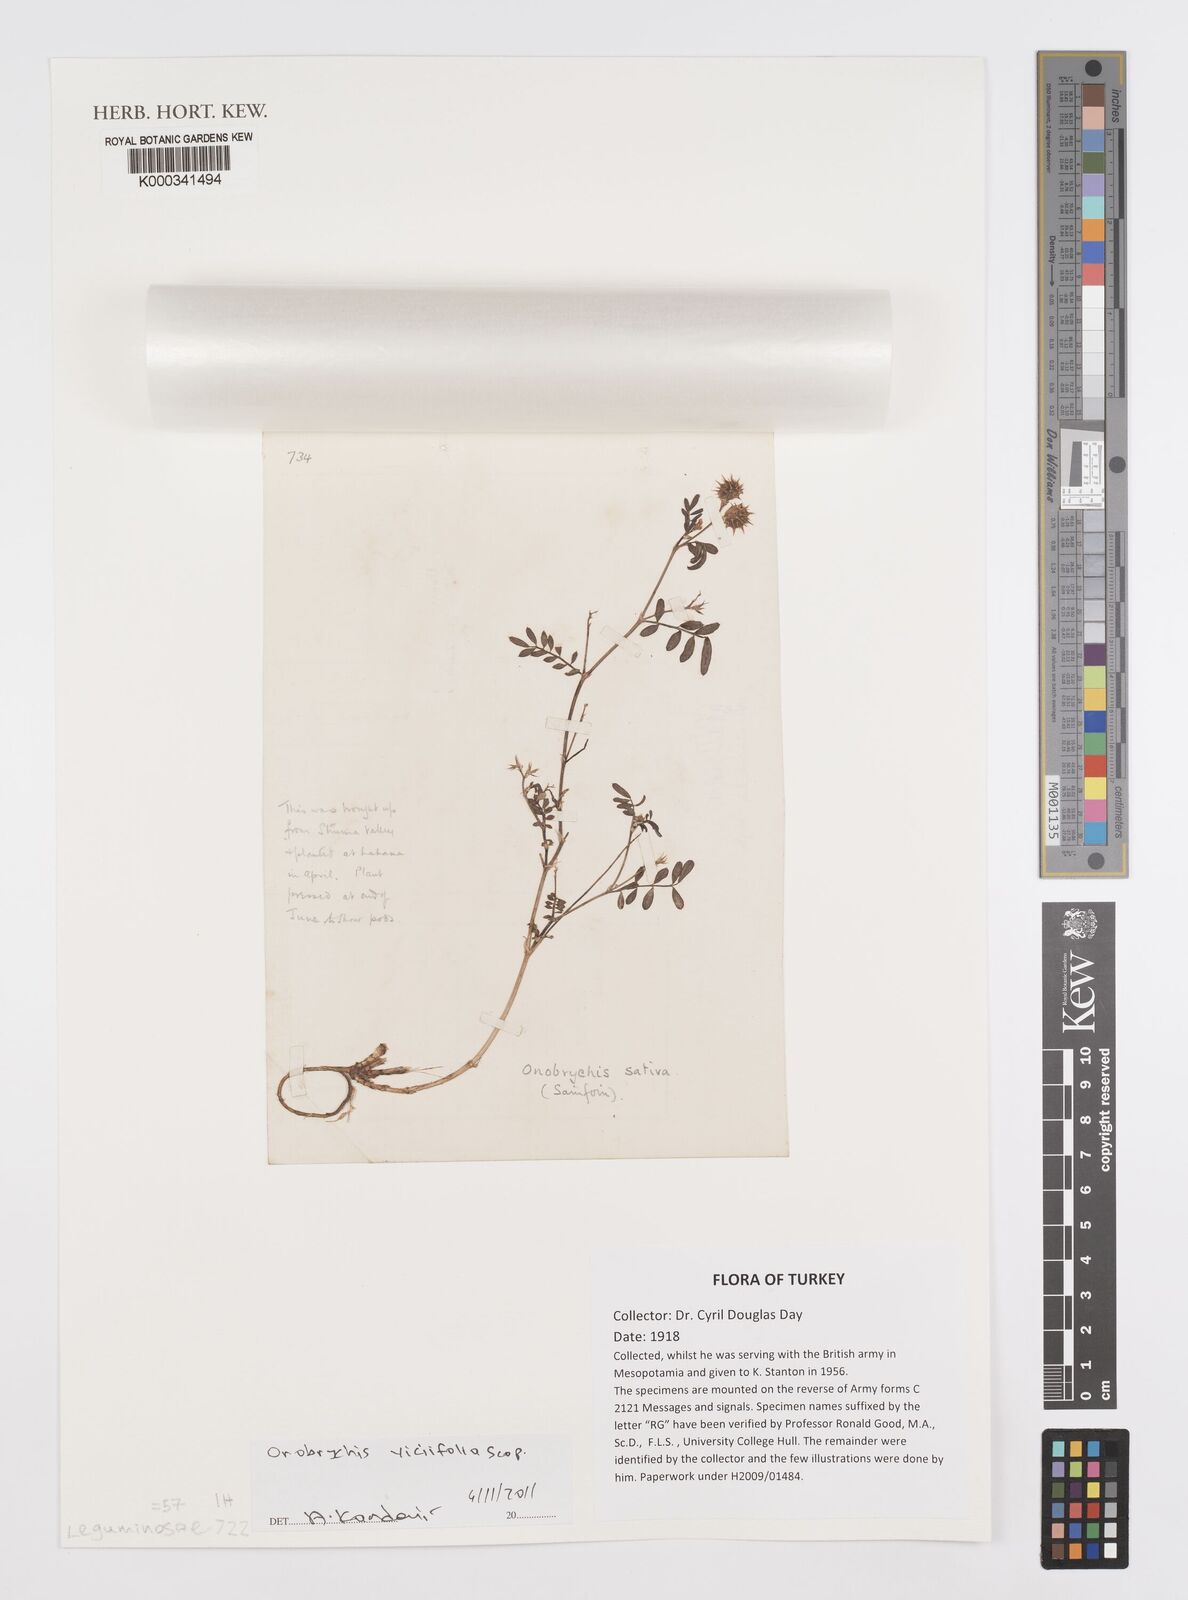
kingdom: Plantae
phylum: Tracheophyta
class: Magnoliopsida
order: Fabales
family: Fabaceae
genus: Onobrychis
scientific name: Onobrychis viciifolia
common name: Sainfoin
